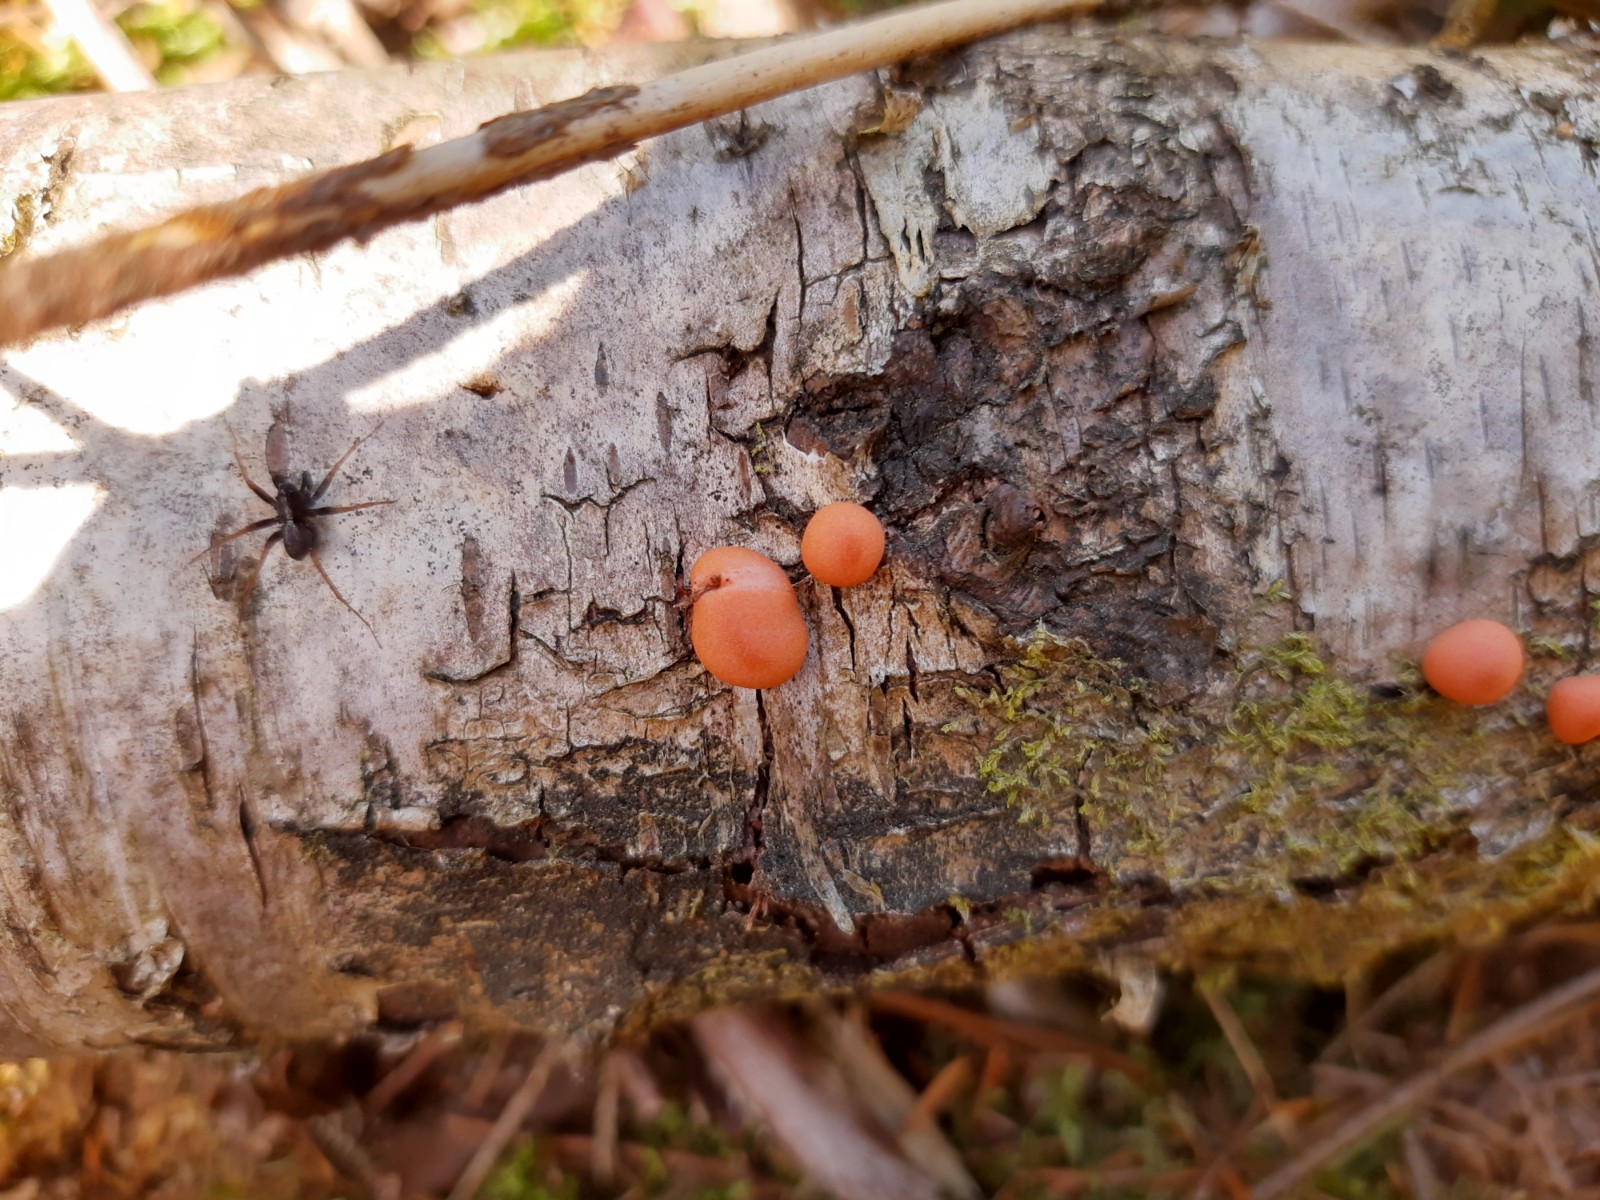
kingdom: Protozoa
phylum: Mycetozoa
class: Myxomycetes
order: Cribrariales
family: Tubiferaceae
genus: Lycogala
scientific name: Lycogala epidendrum
